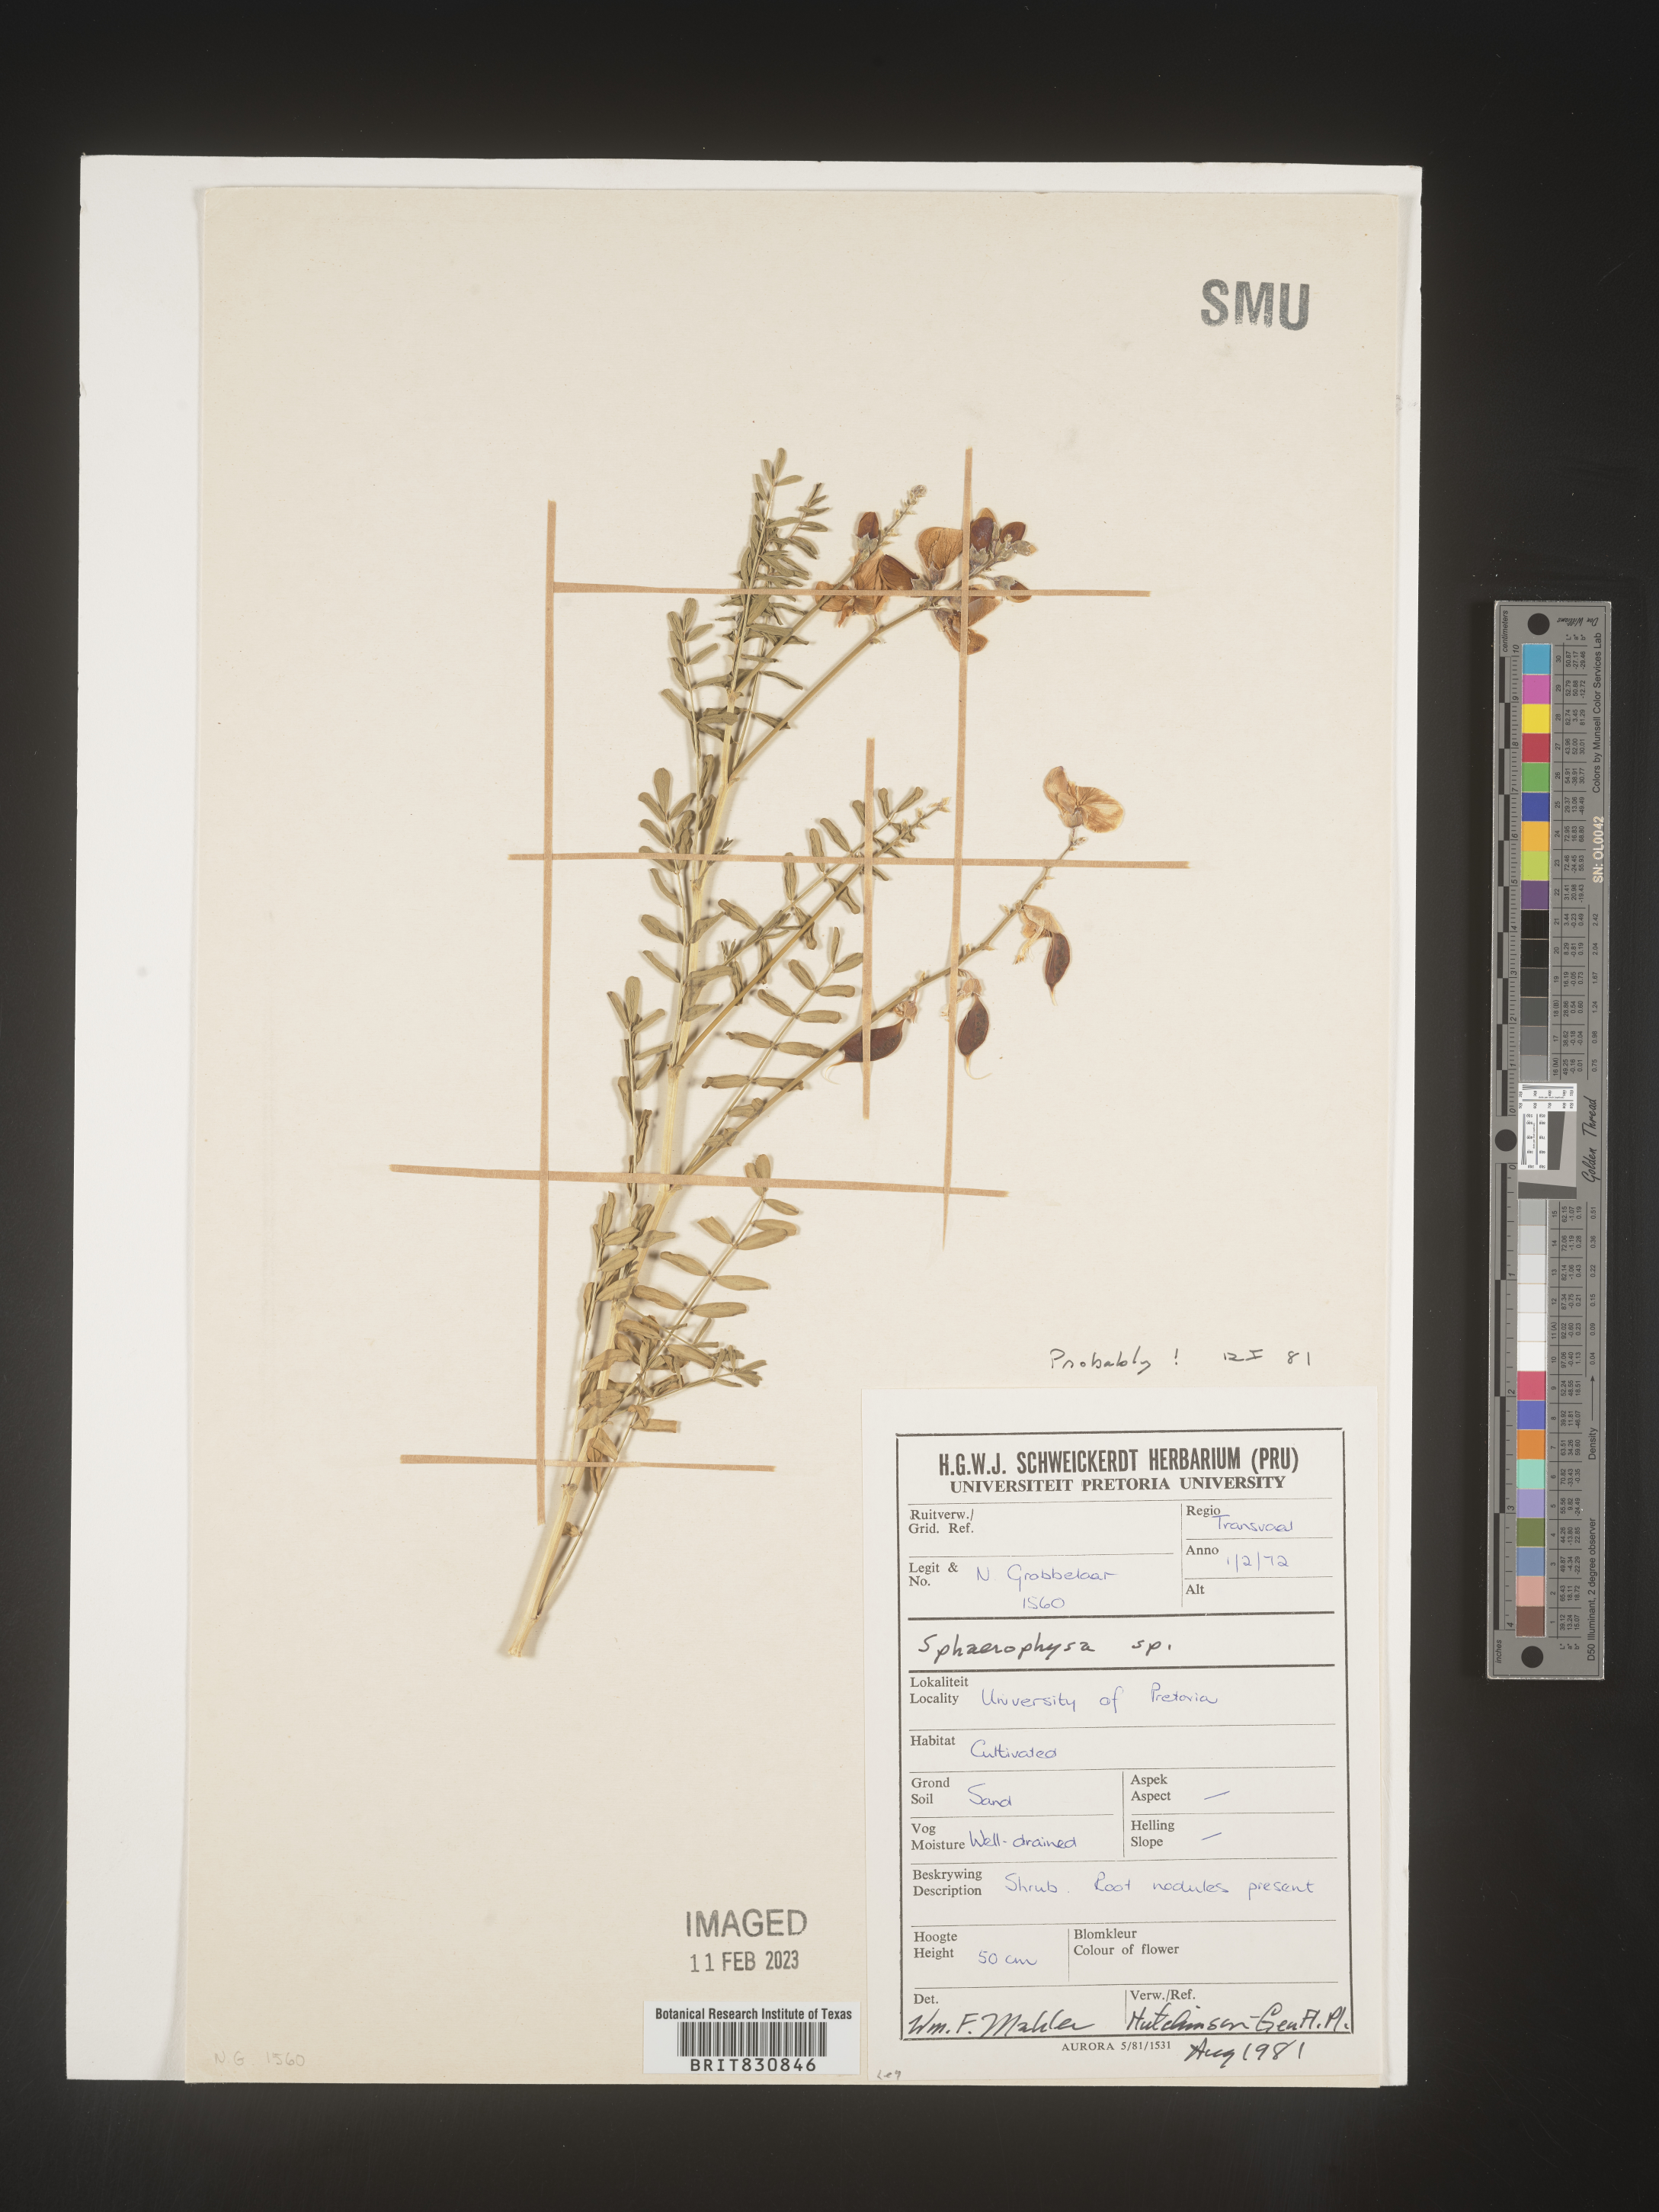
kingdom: Plantae
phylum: Tracheophyta
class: Magnoliopsida
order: Fabales
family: Fabaceae
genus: Sphaerophysa
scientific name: Sphaerophysa
